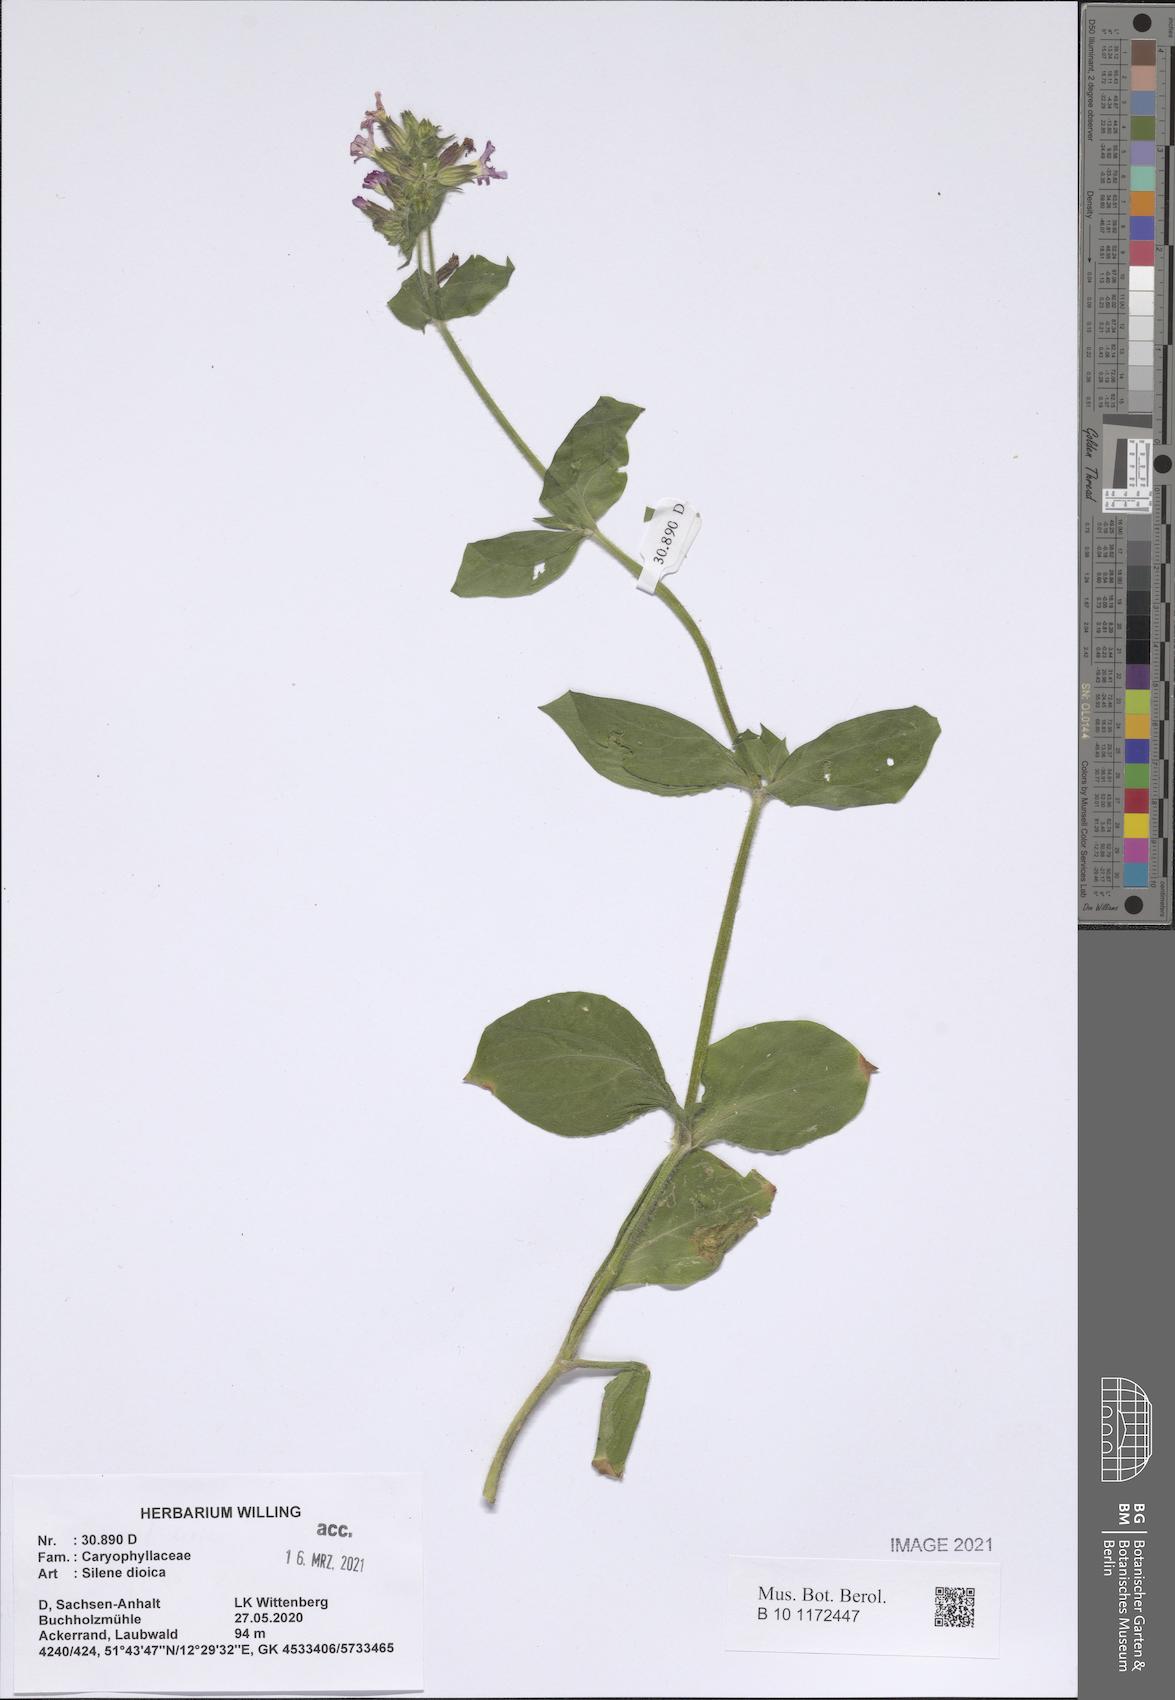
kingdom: Plantae
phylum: Tracheophyta
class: Magnoliopsida
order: Caryophyllales
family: Caryophyllaceae
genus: Silene
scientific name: Silene dioica
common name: Red campion
